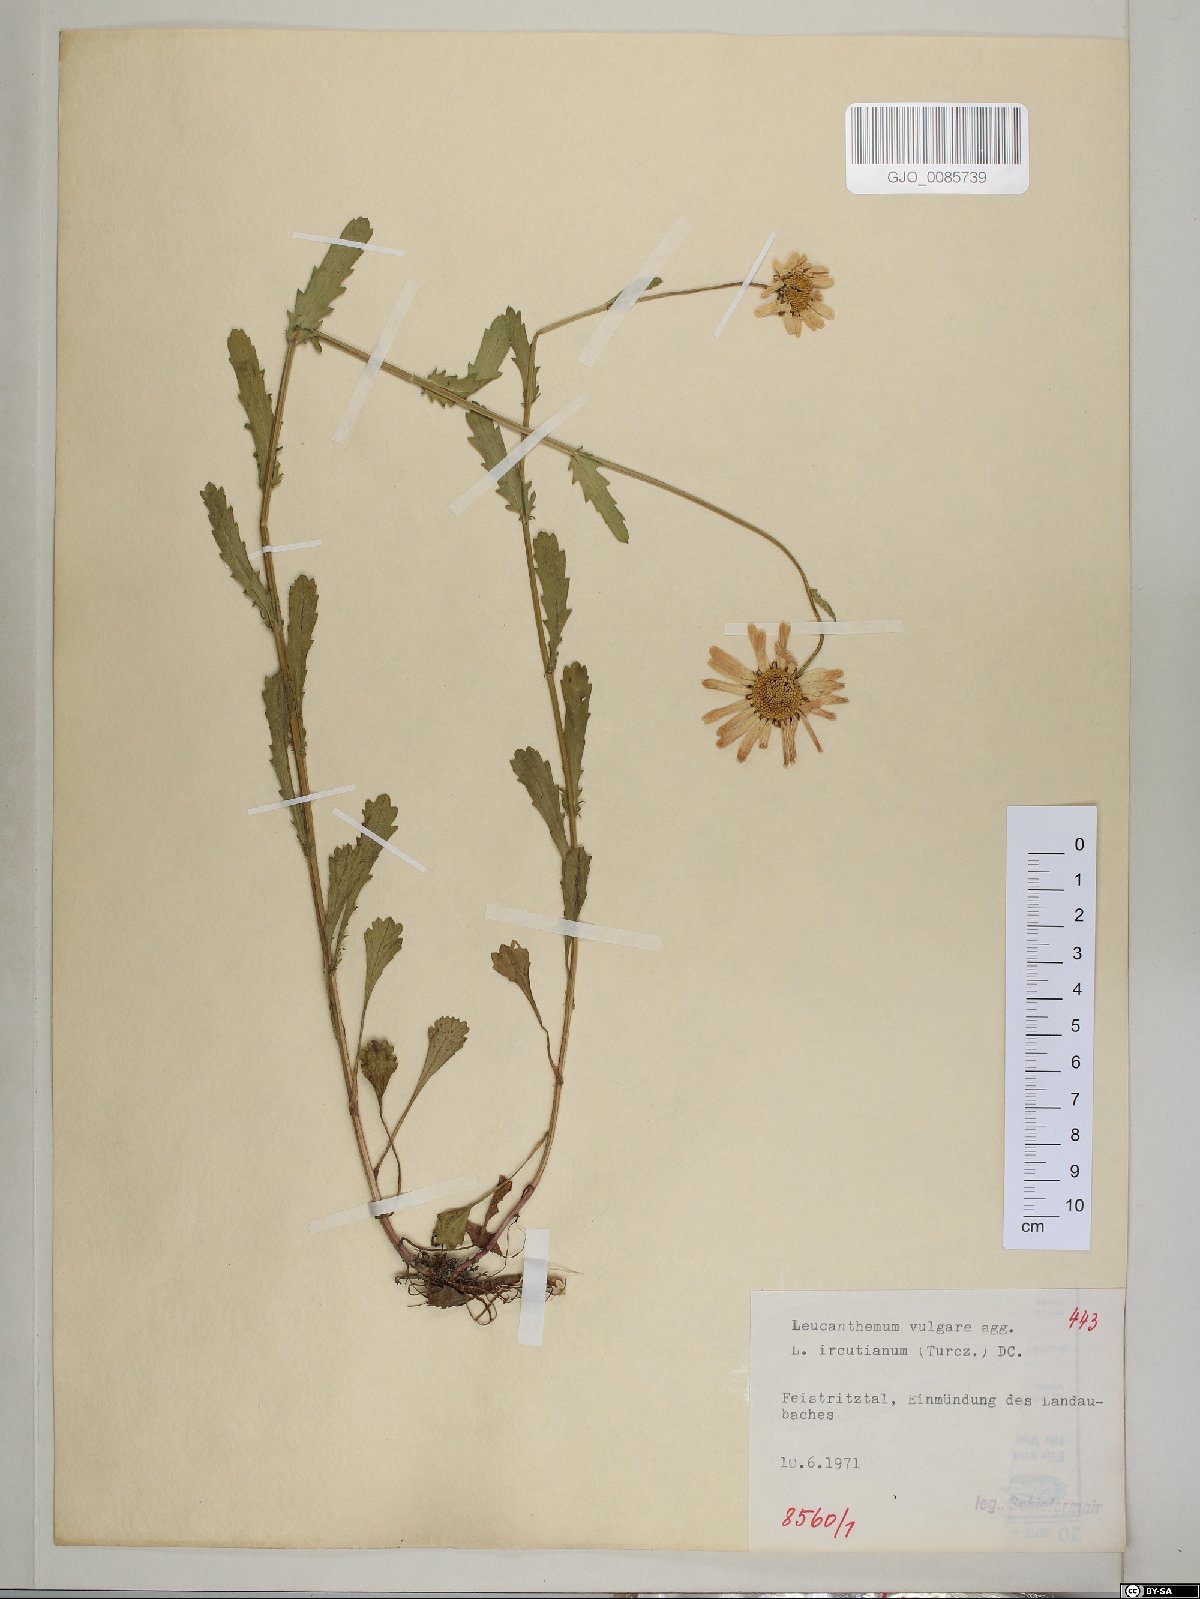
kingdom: Plantae
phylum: Tracheophyta
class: Magnoliopsida
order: Asterales
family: Asteraceae
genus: Leucanthemum
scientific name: Leucanthemum ircutianum
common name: Daisy
